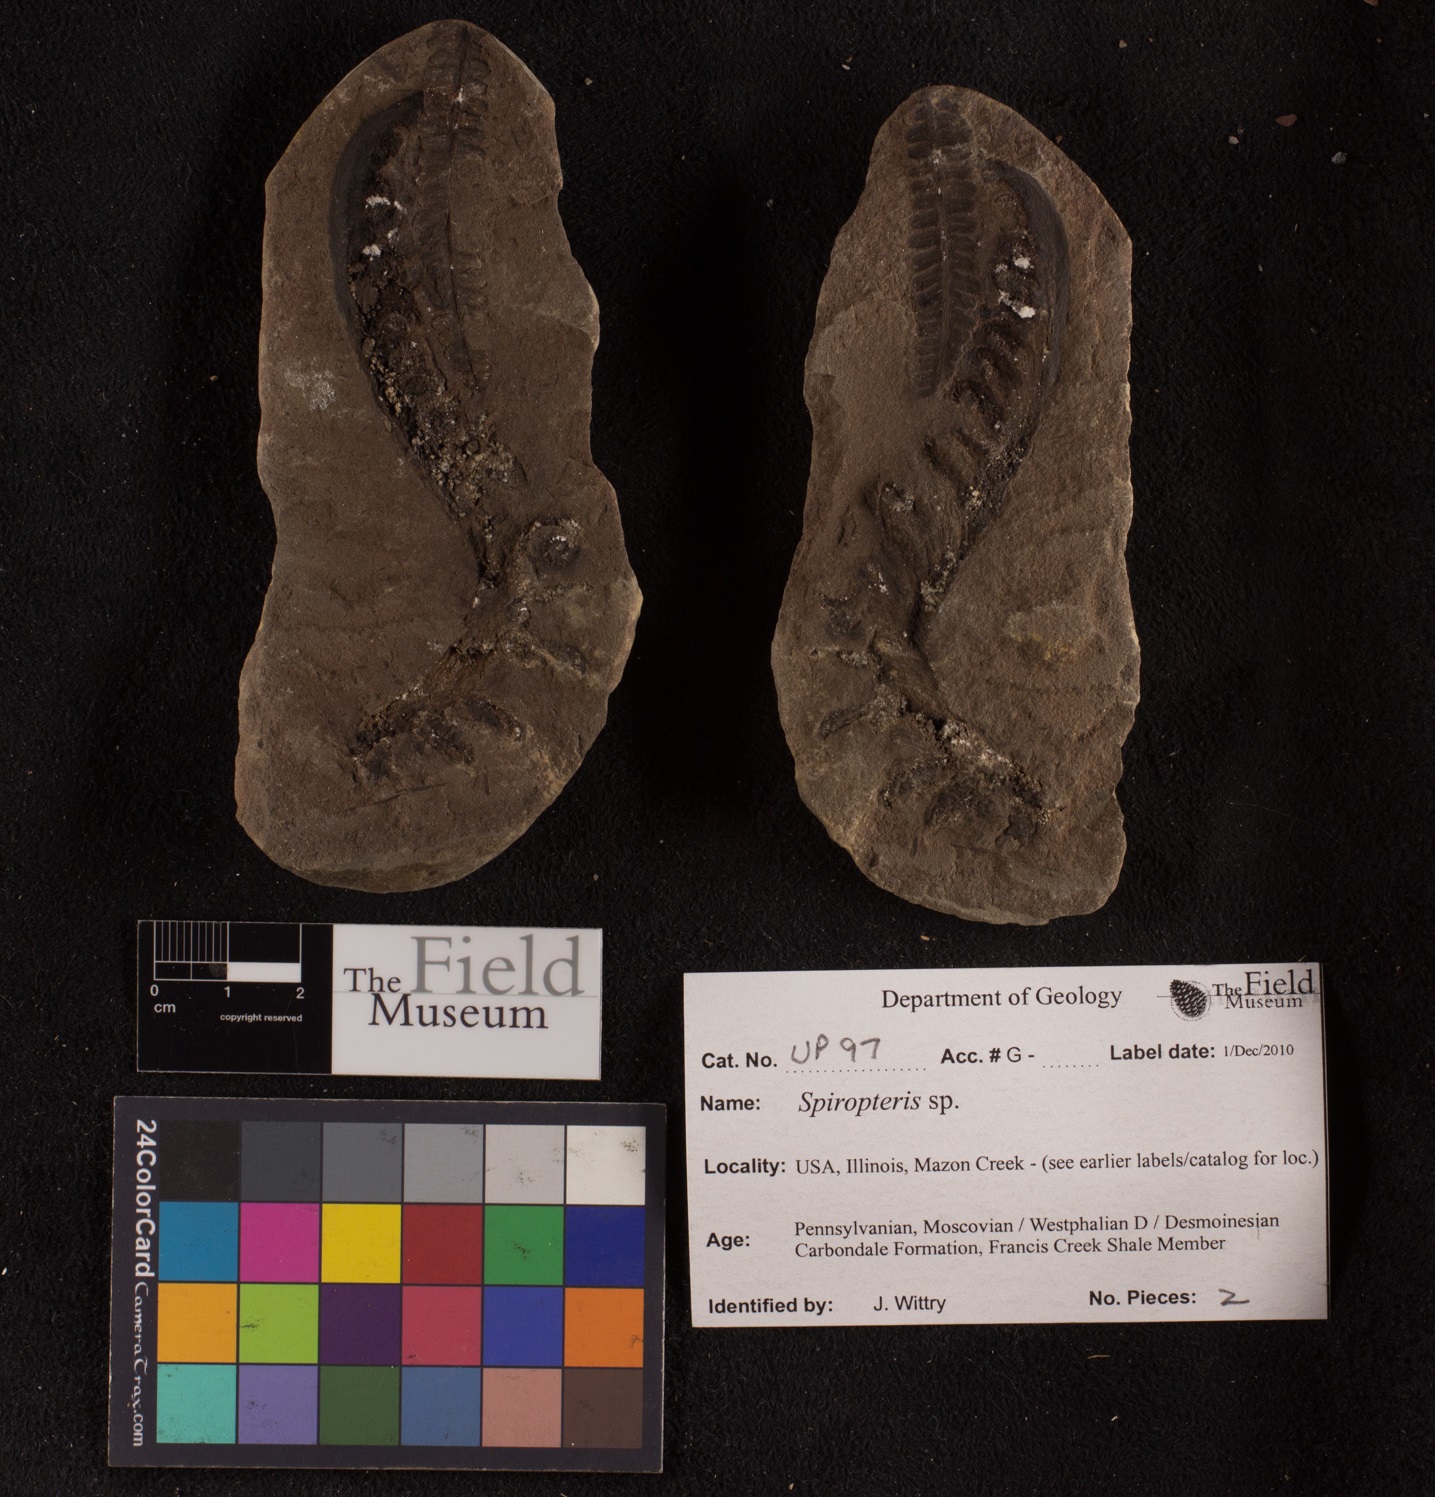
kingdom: Plantae
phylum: Tracheophyta
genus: Spiropteris
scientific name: Spiropteris
